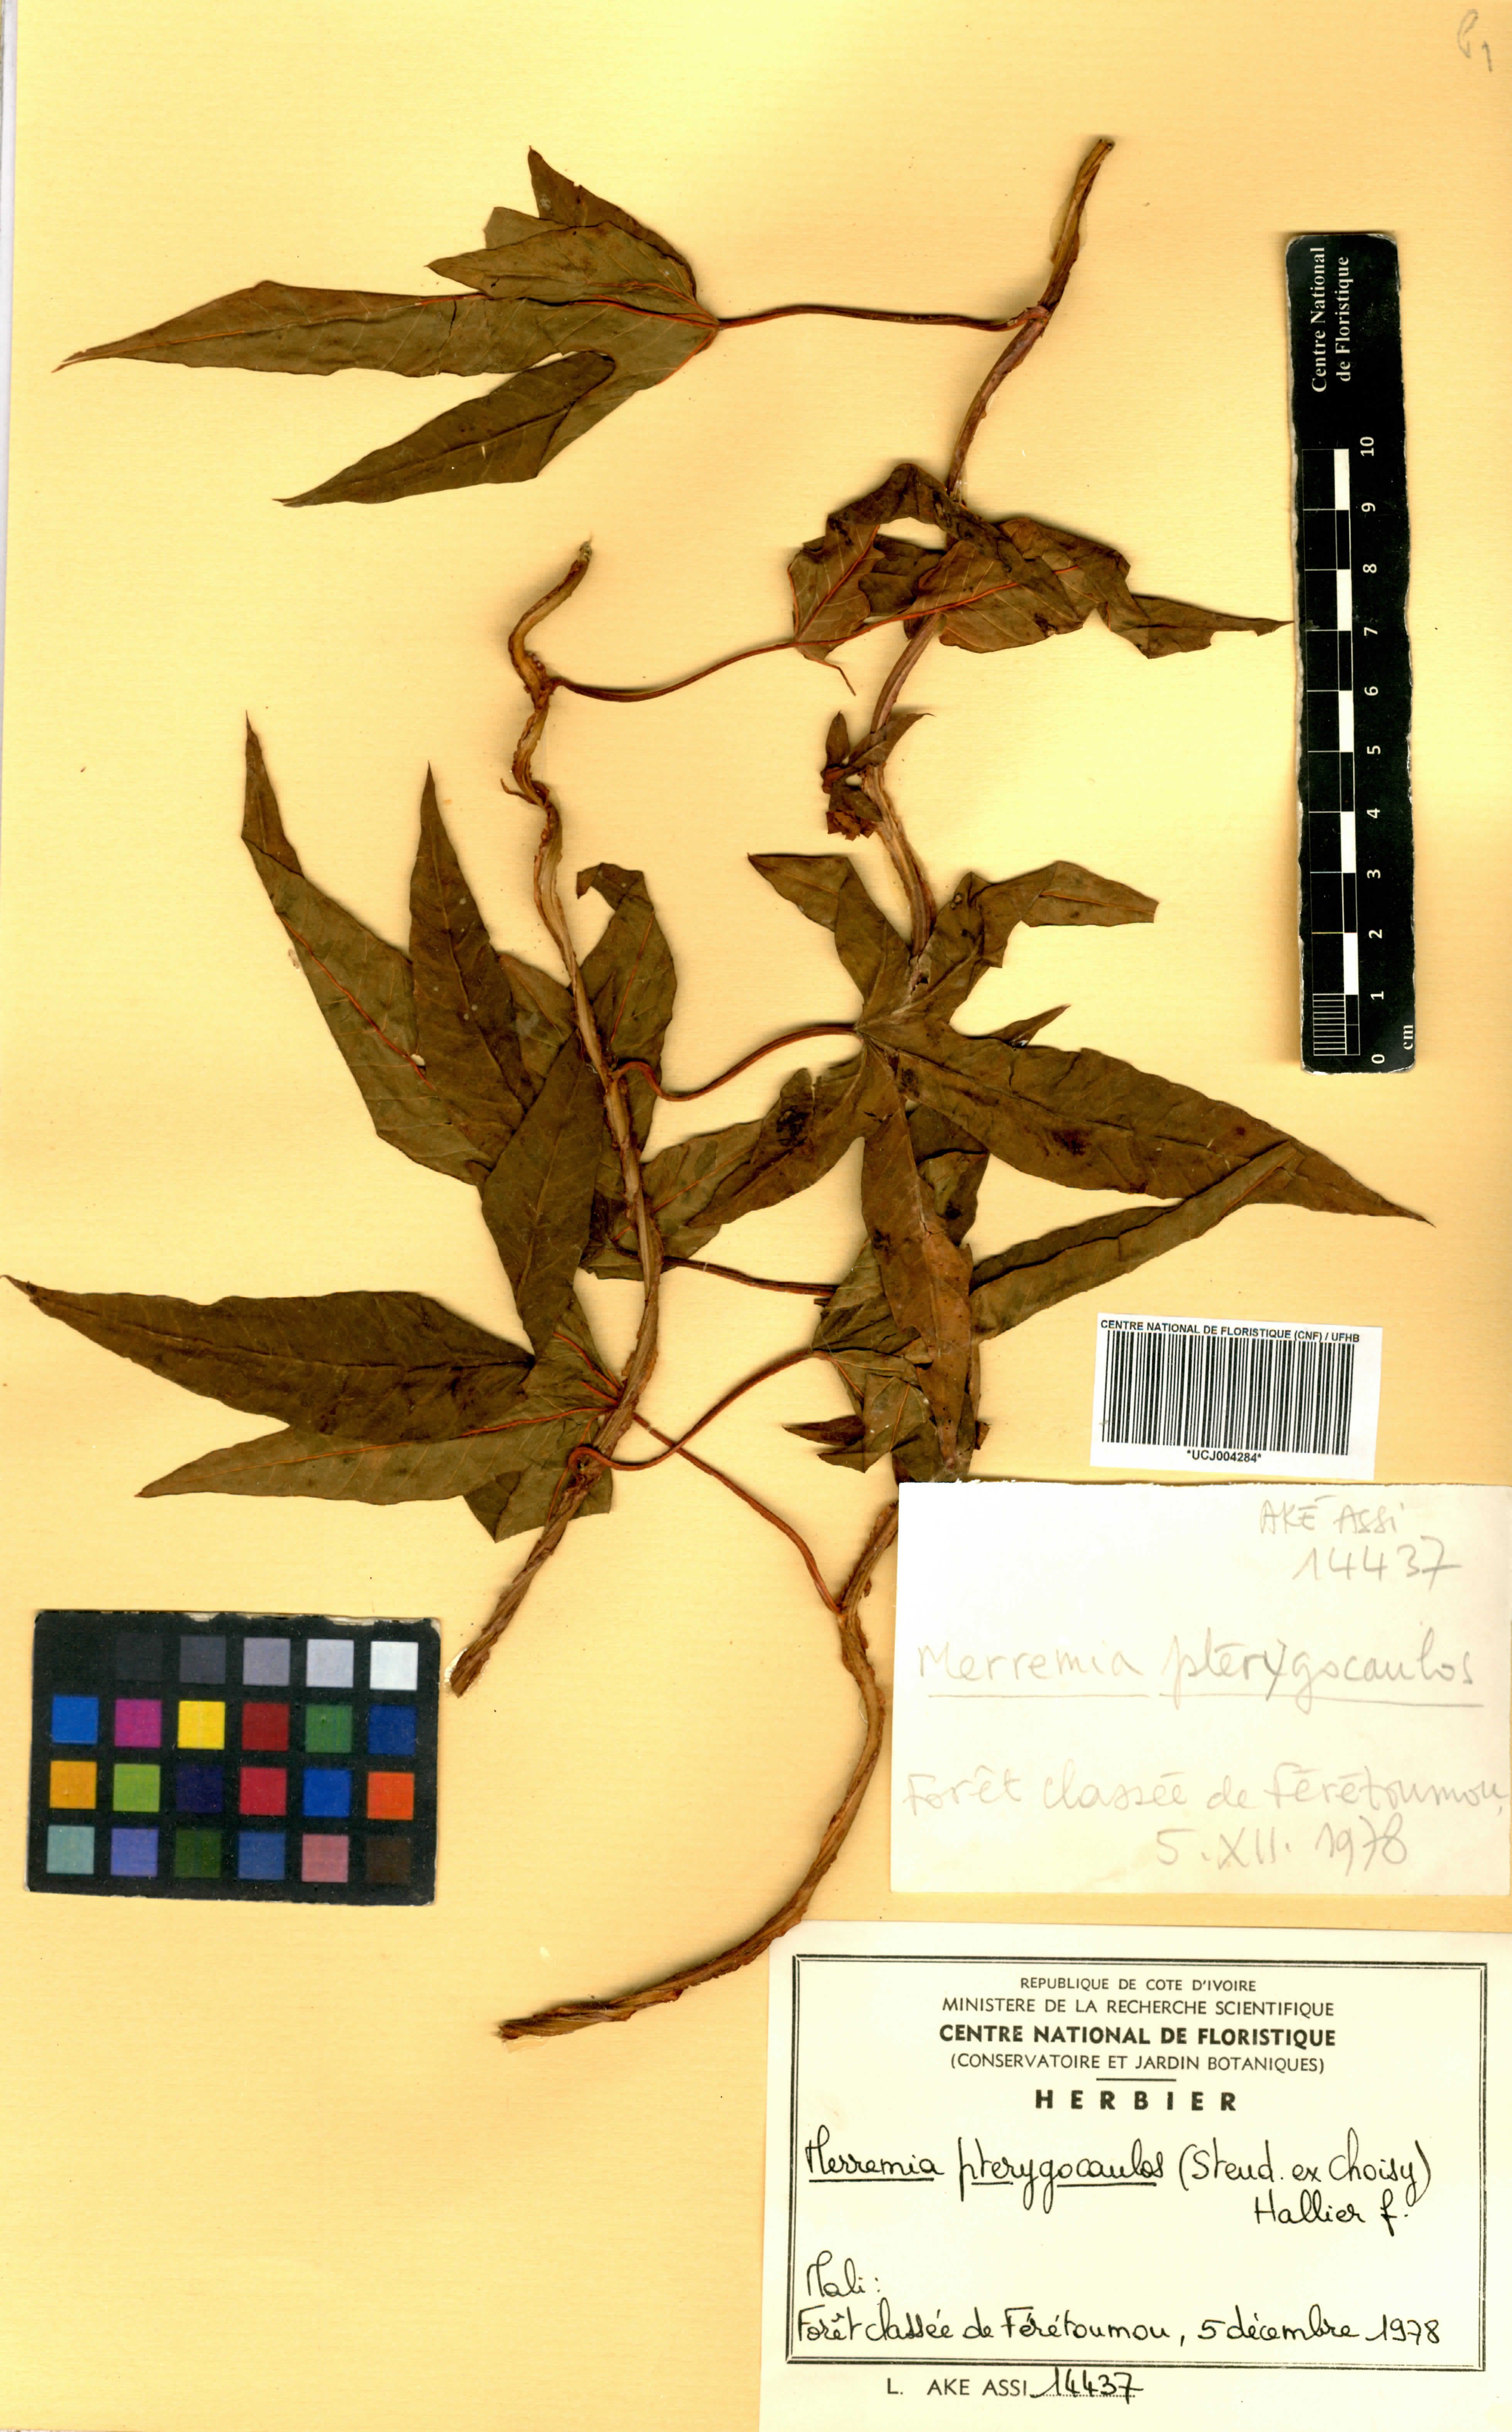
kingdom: Plantae
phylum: Tracheophyta
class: Magnoliopsida
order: Solanales
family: Convolvulaceae
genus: Merremia
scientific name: Merremia pterygocaulos
